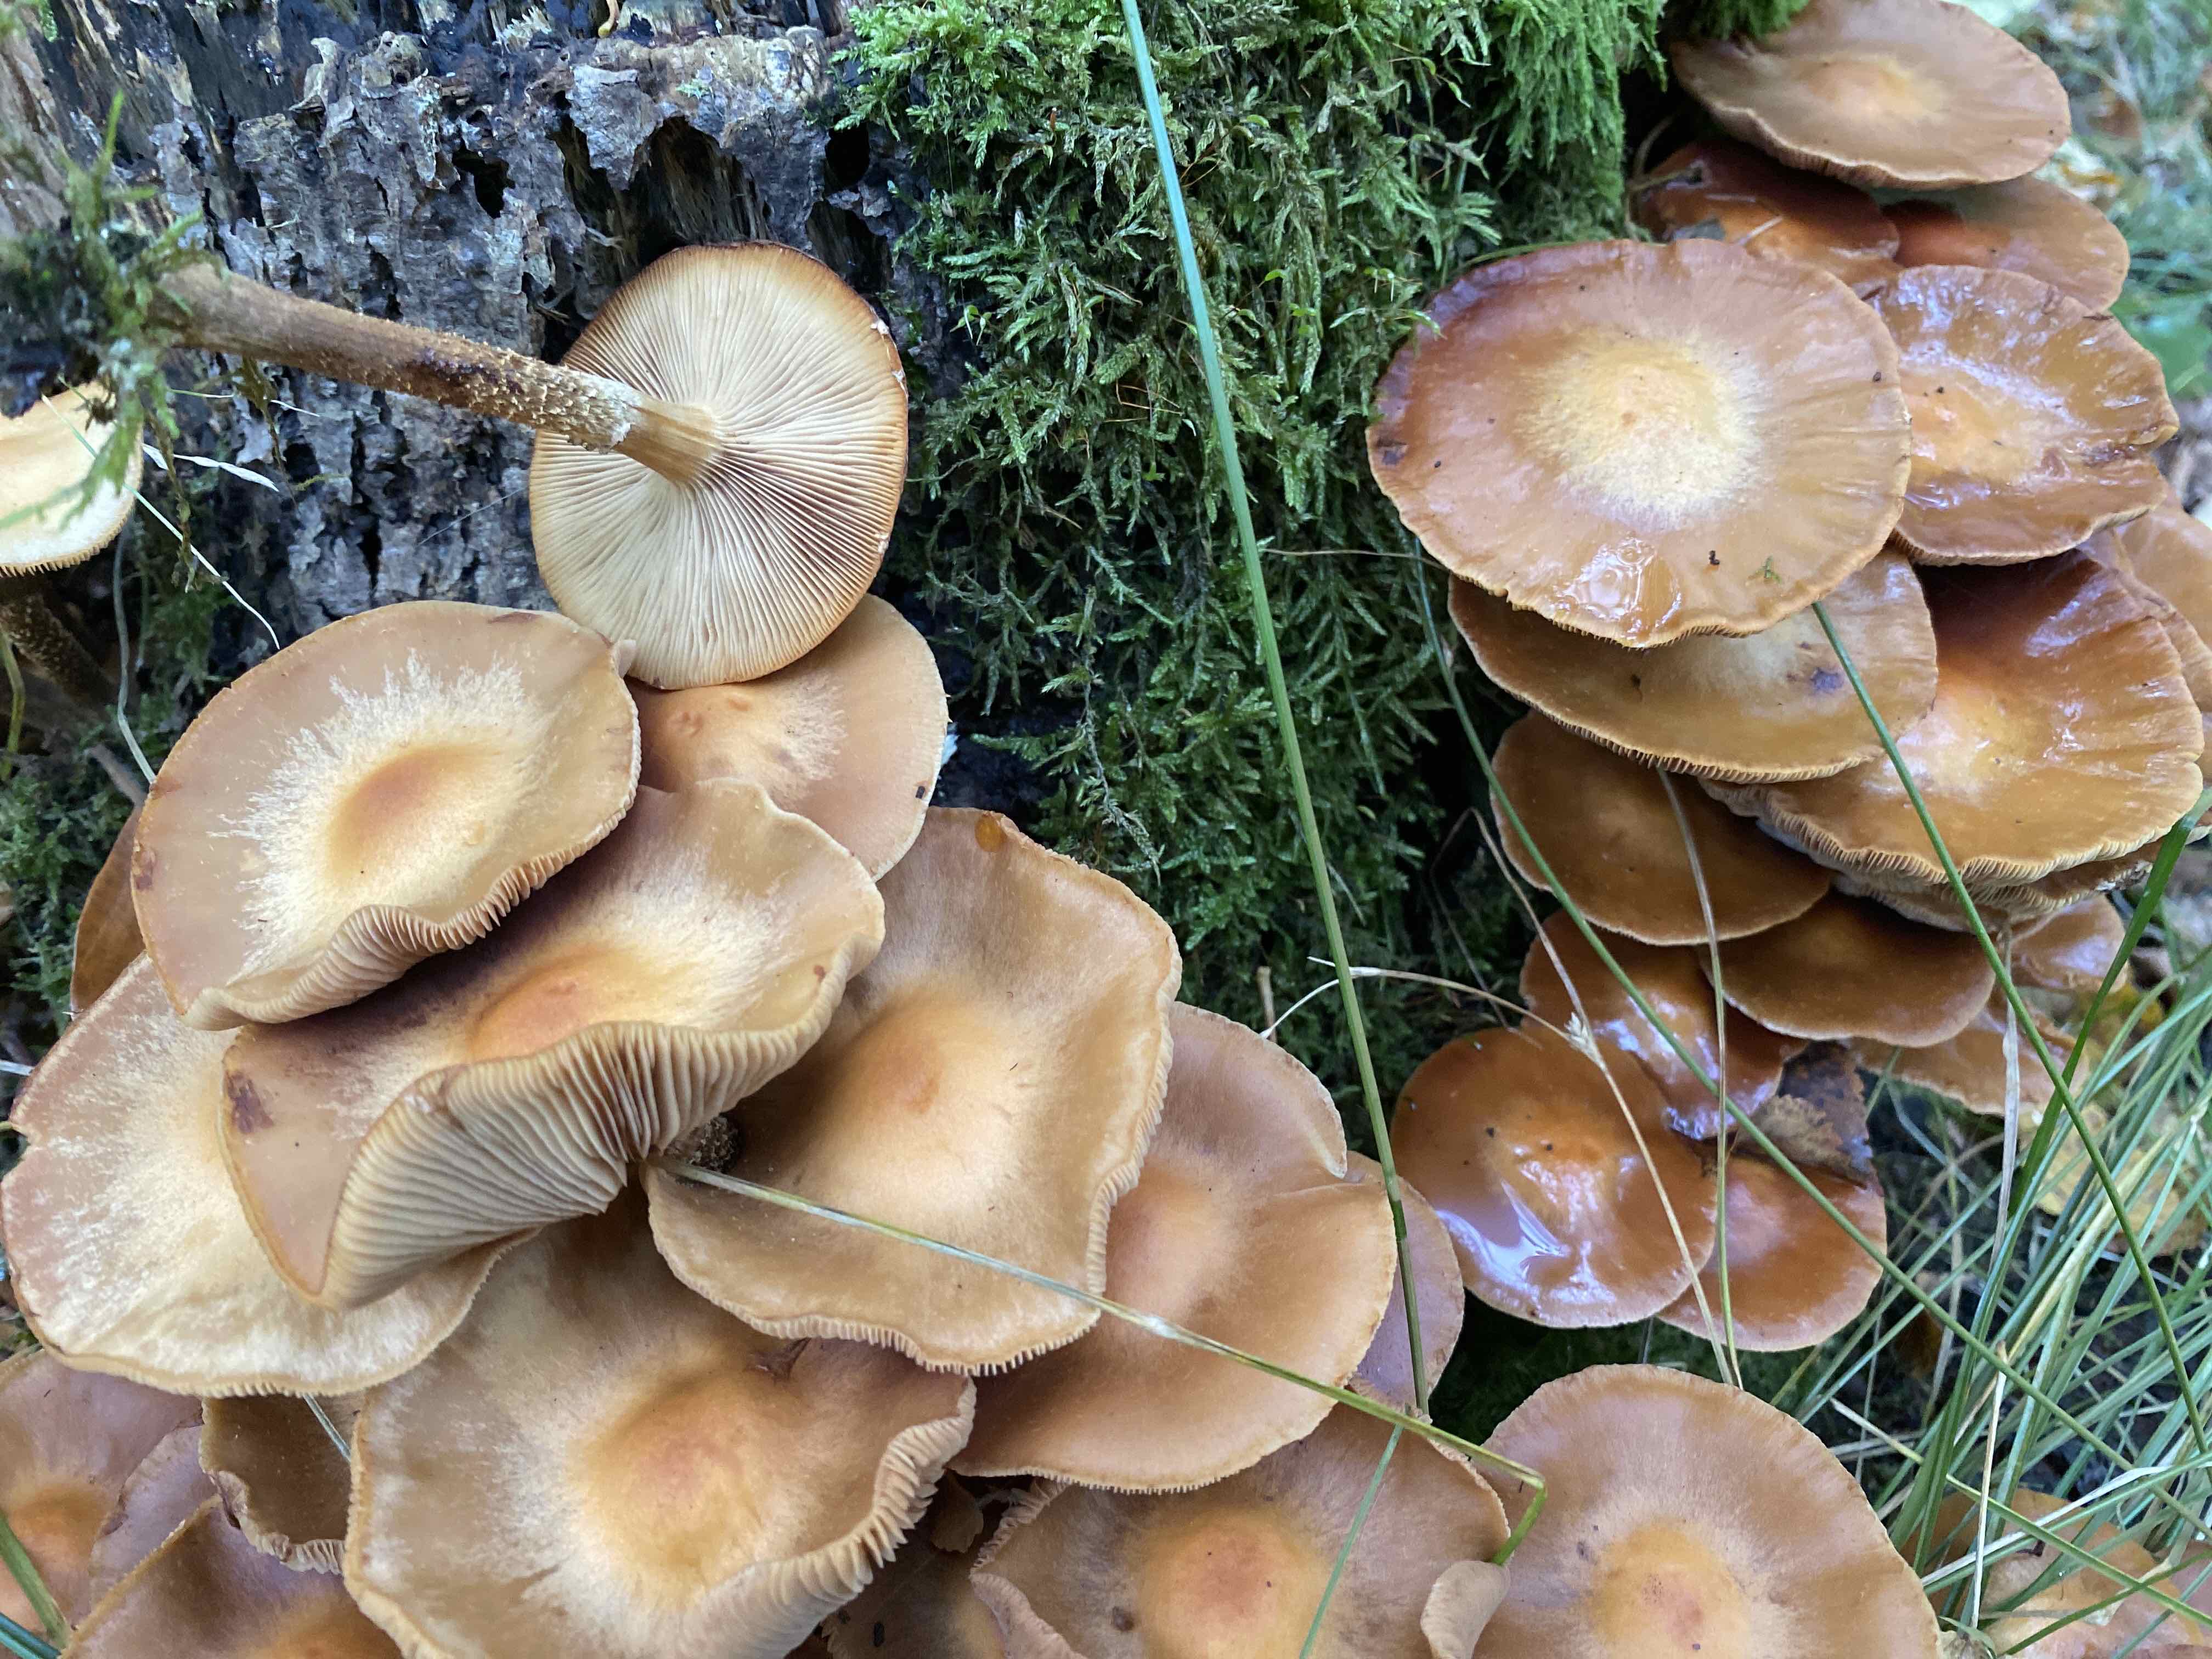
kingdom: Fungi
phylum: Basidiomycota
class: Agaricomycetes
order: Agaricales
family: Strophariaceae
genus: Kuehneromyces
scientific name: Kuehneromyces mutabilis
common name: foranderlig skælhat
